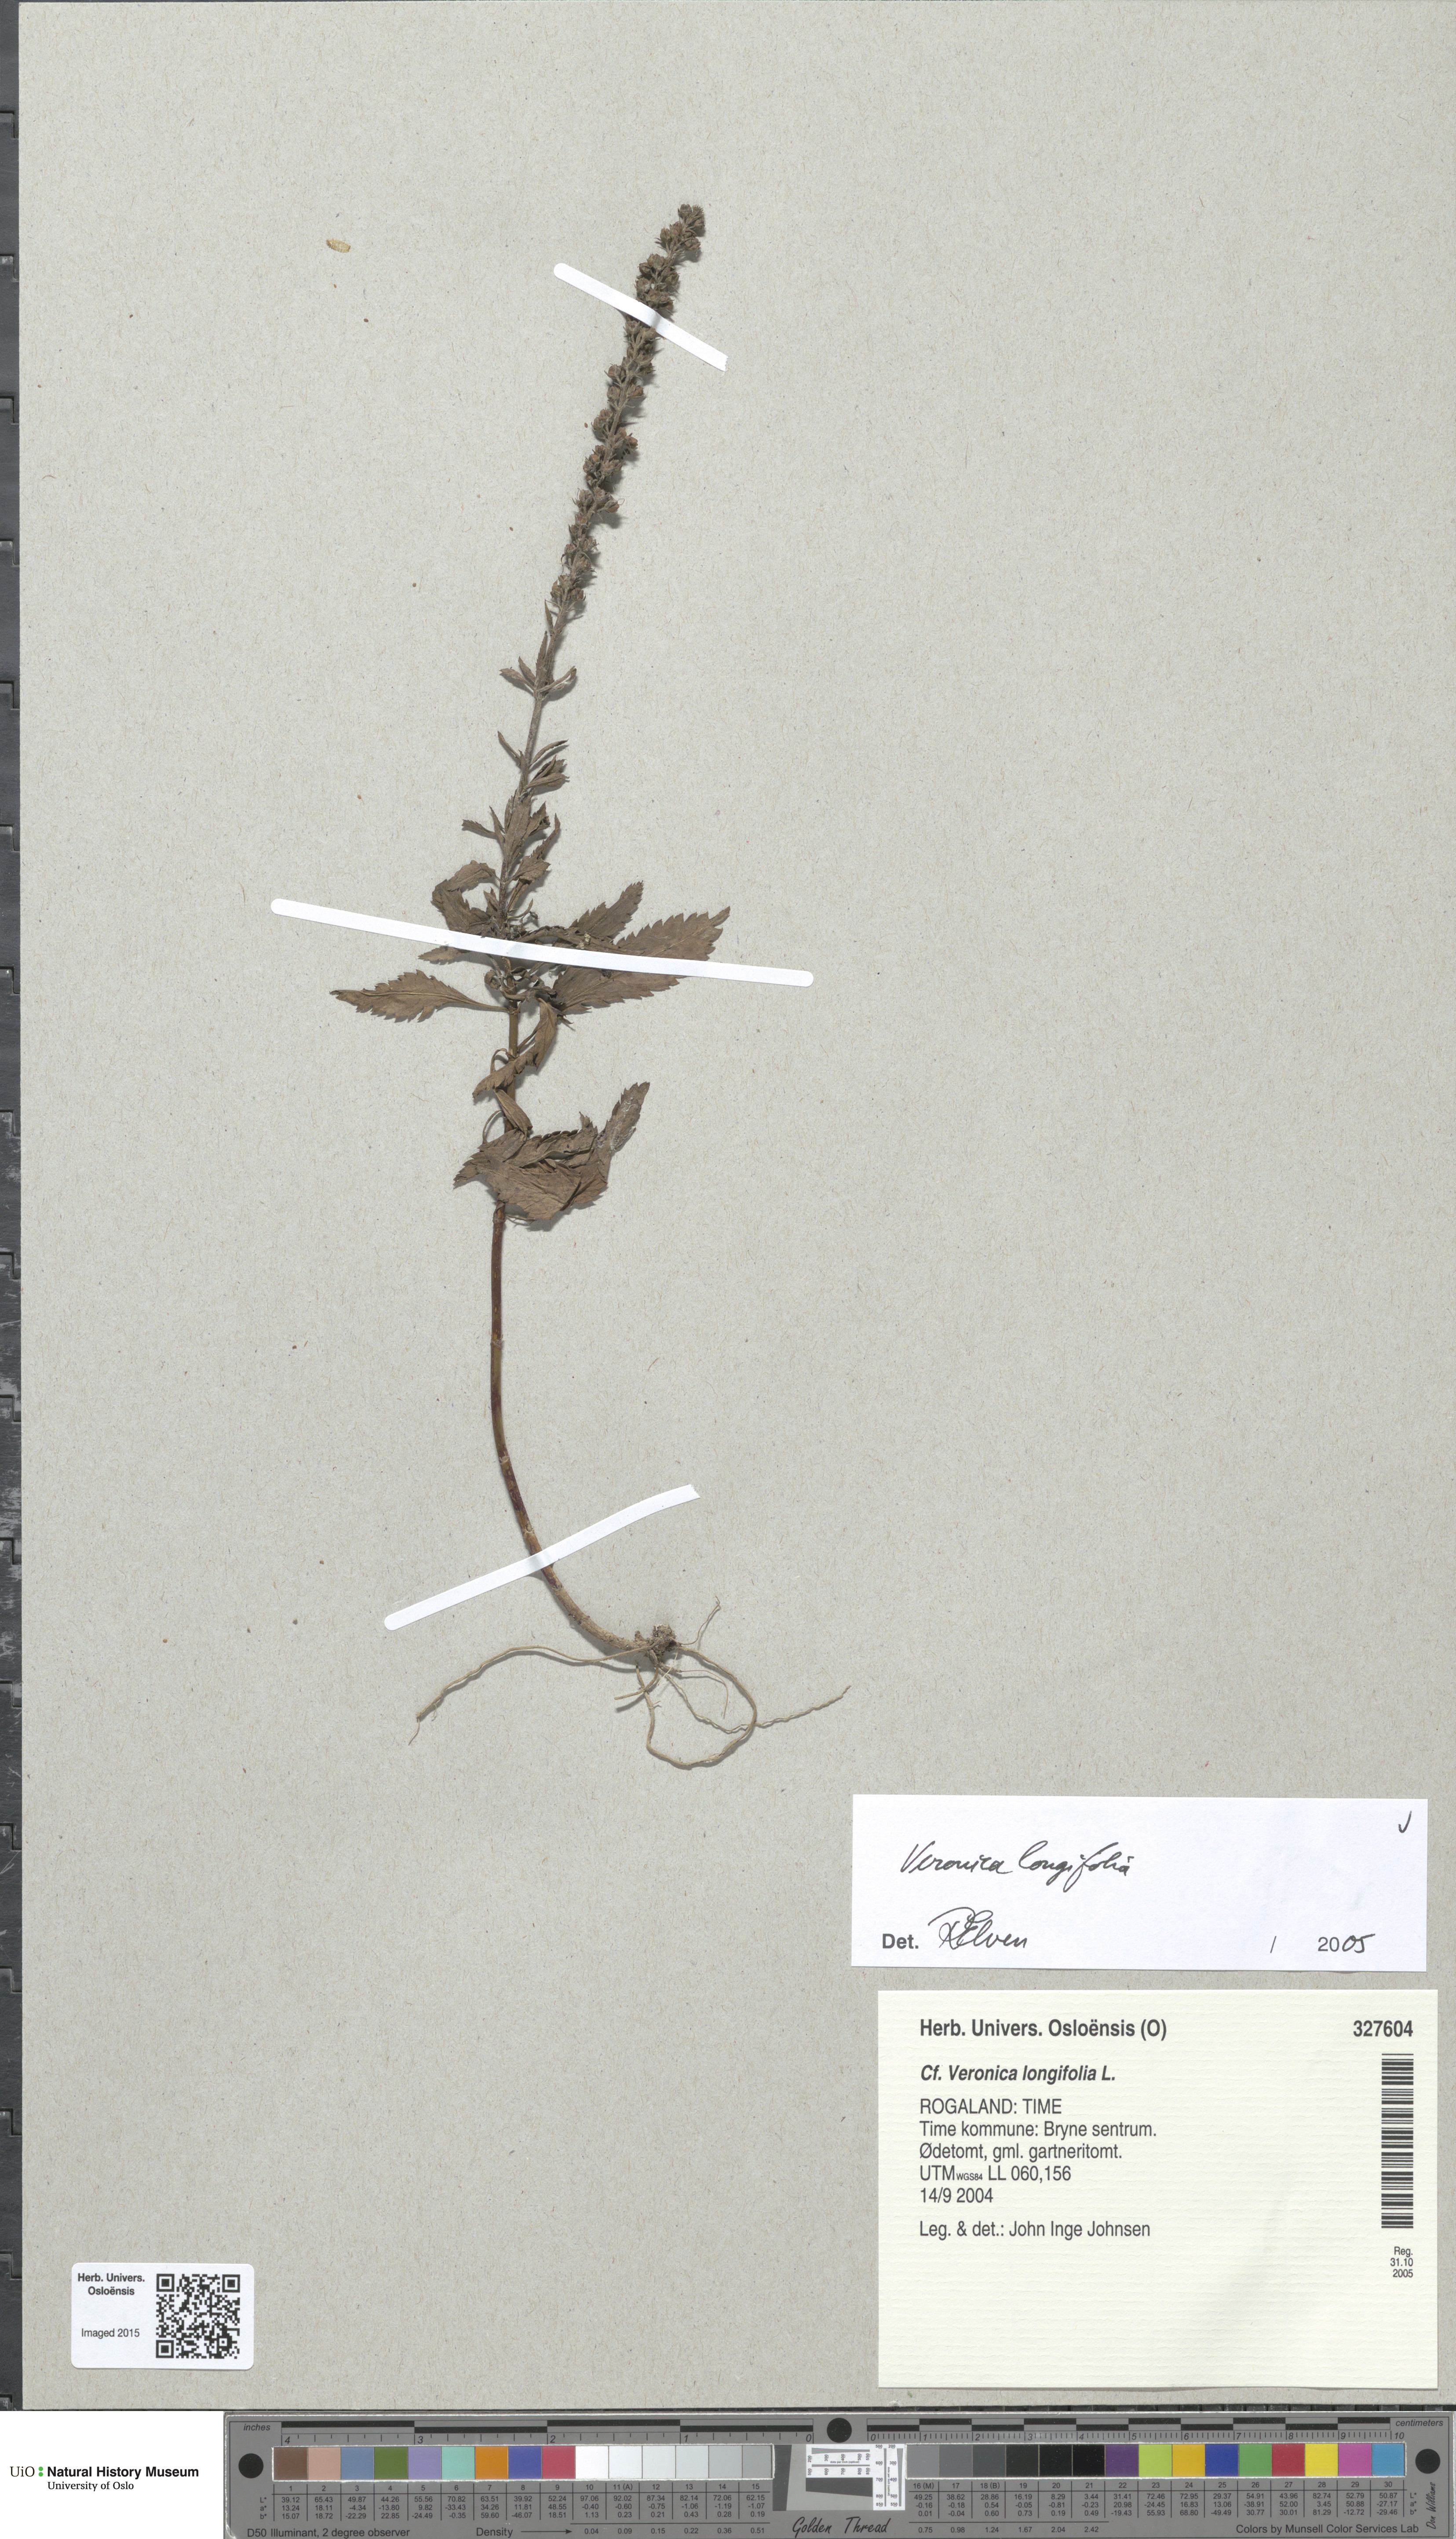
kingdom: Plantae
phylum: Tracheophyta
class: Magnoliopsida
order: Lamiales
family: Plantaginaceae
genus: Veronica
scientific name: Veronica longifolia
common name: Garden speedwell
